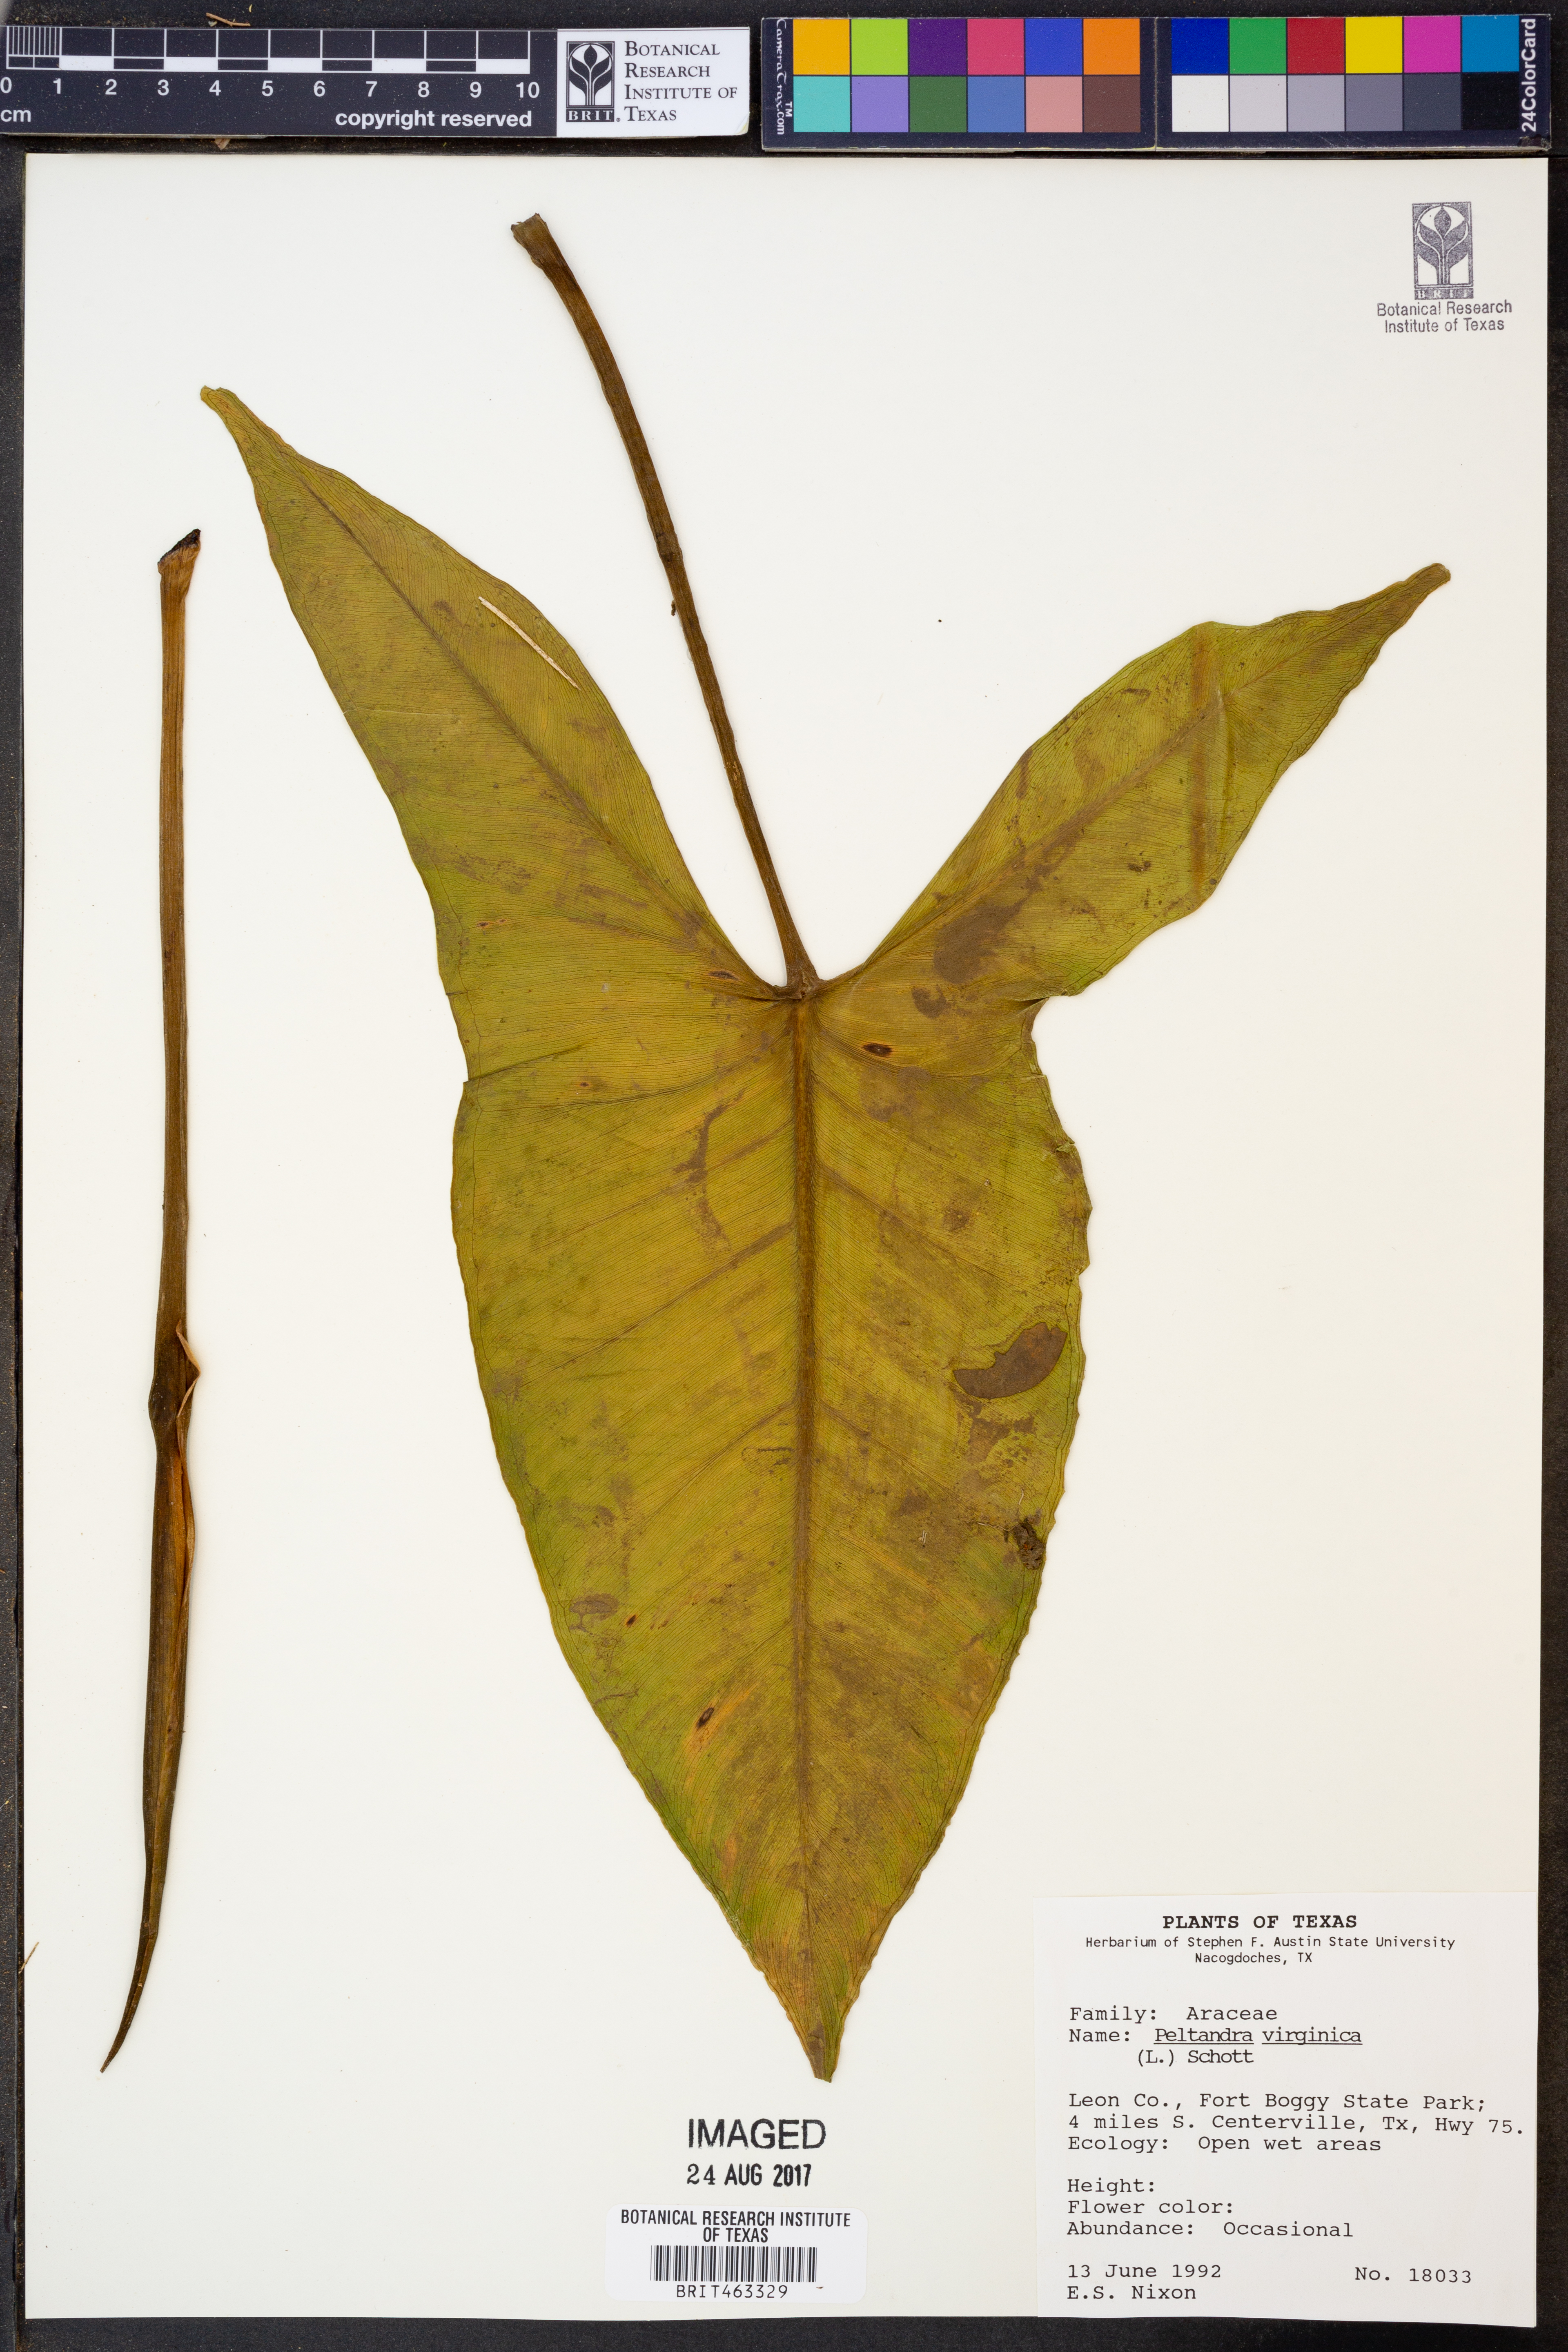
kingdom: Plantae
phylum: Tracheophyta
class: Liliopsida
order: Alismatales
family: Araceae
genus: Peltandra
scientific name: Peltandra virginica
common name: Arrow arum
